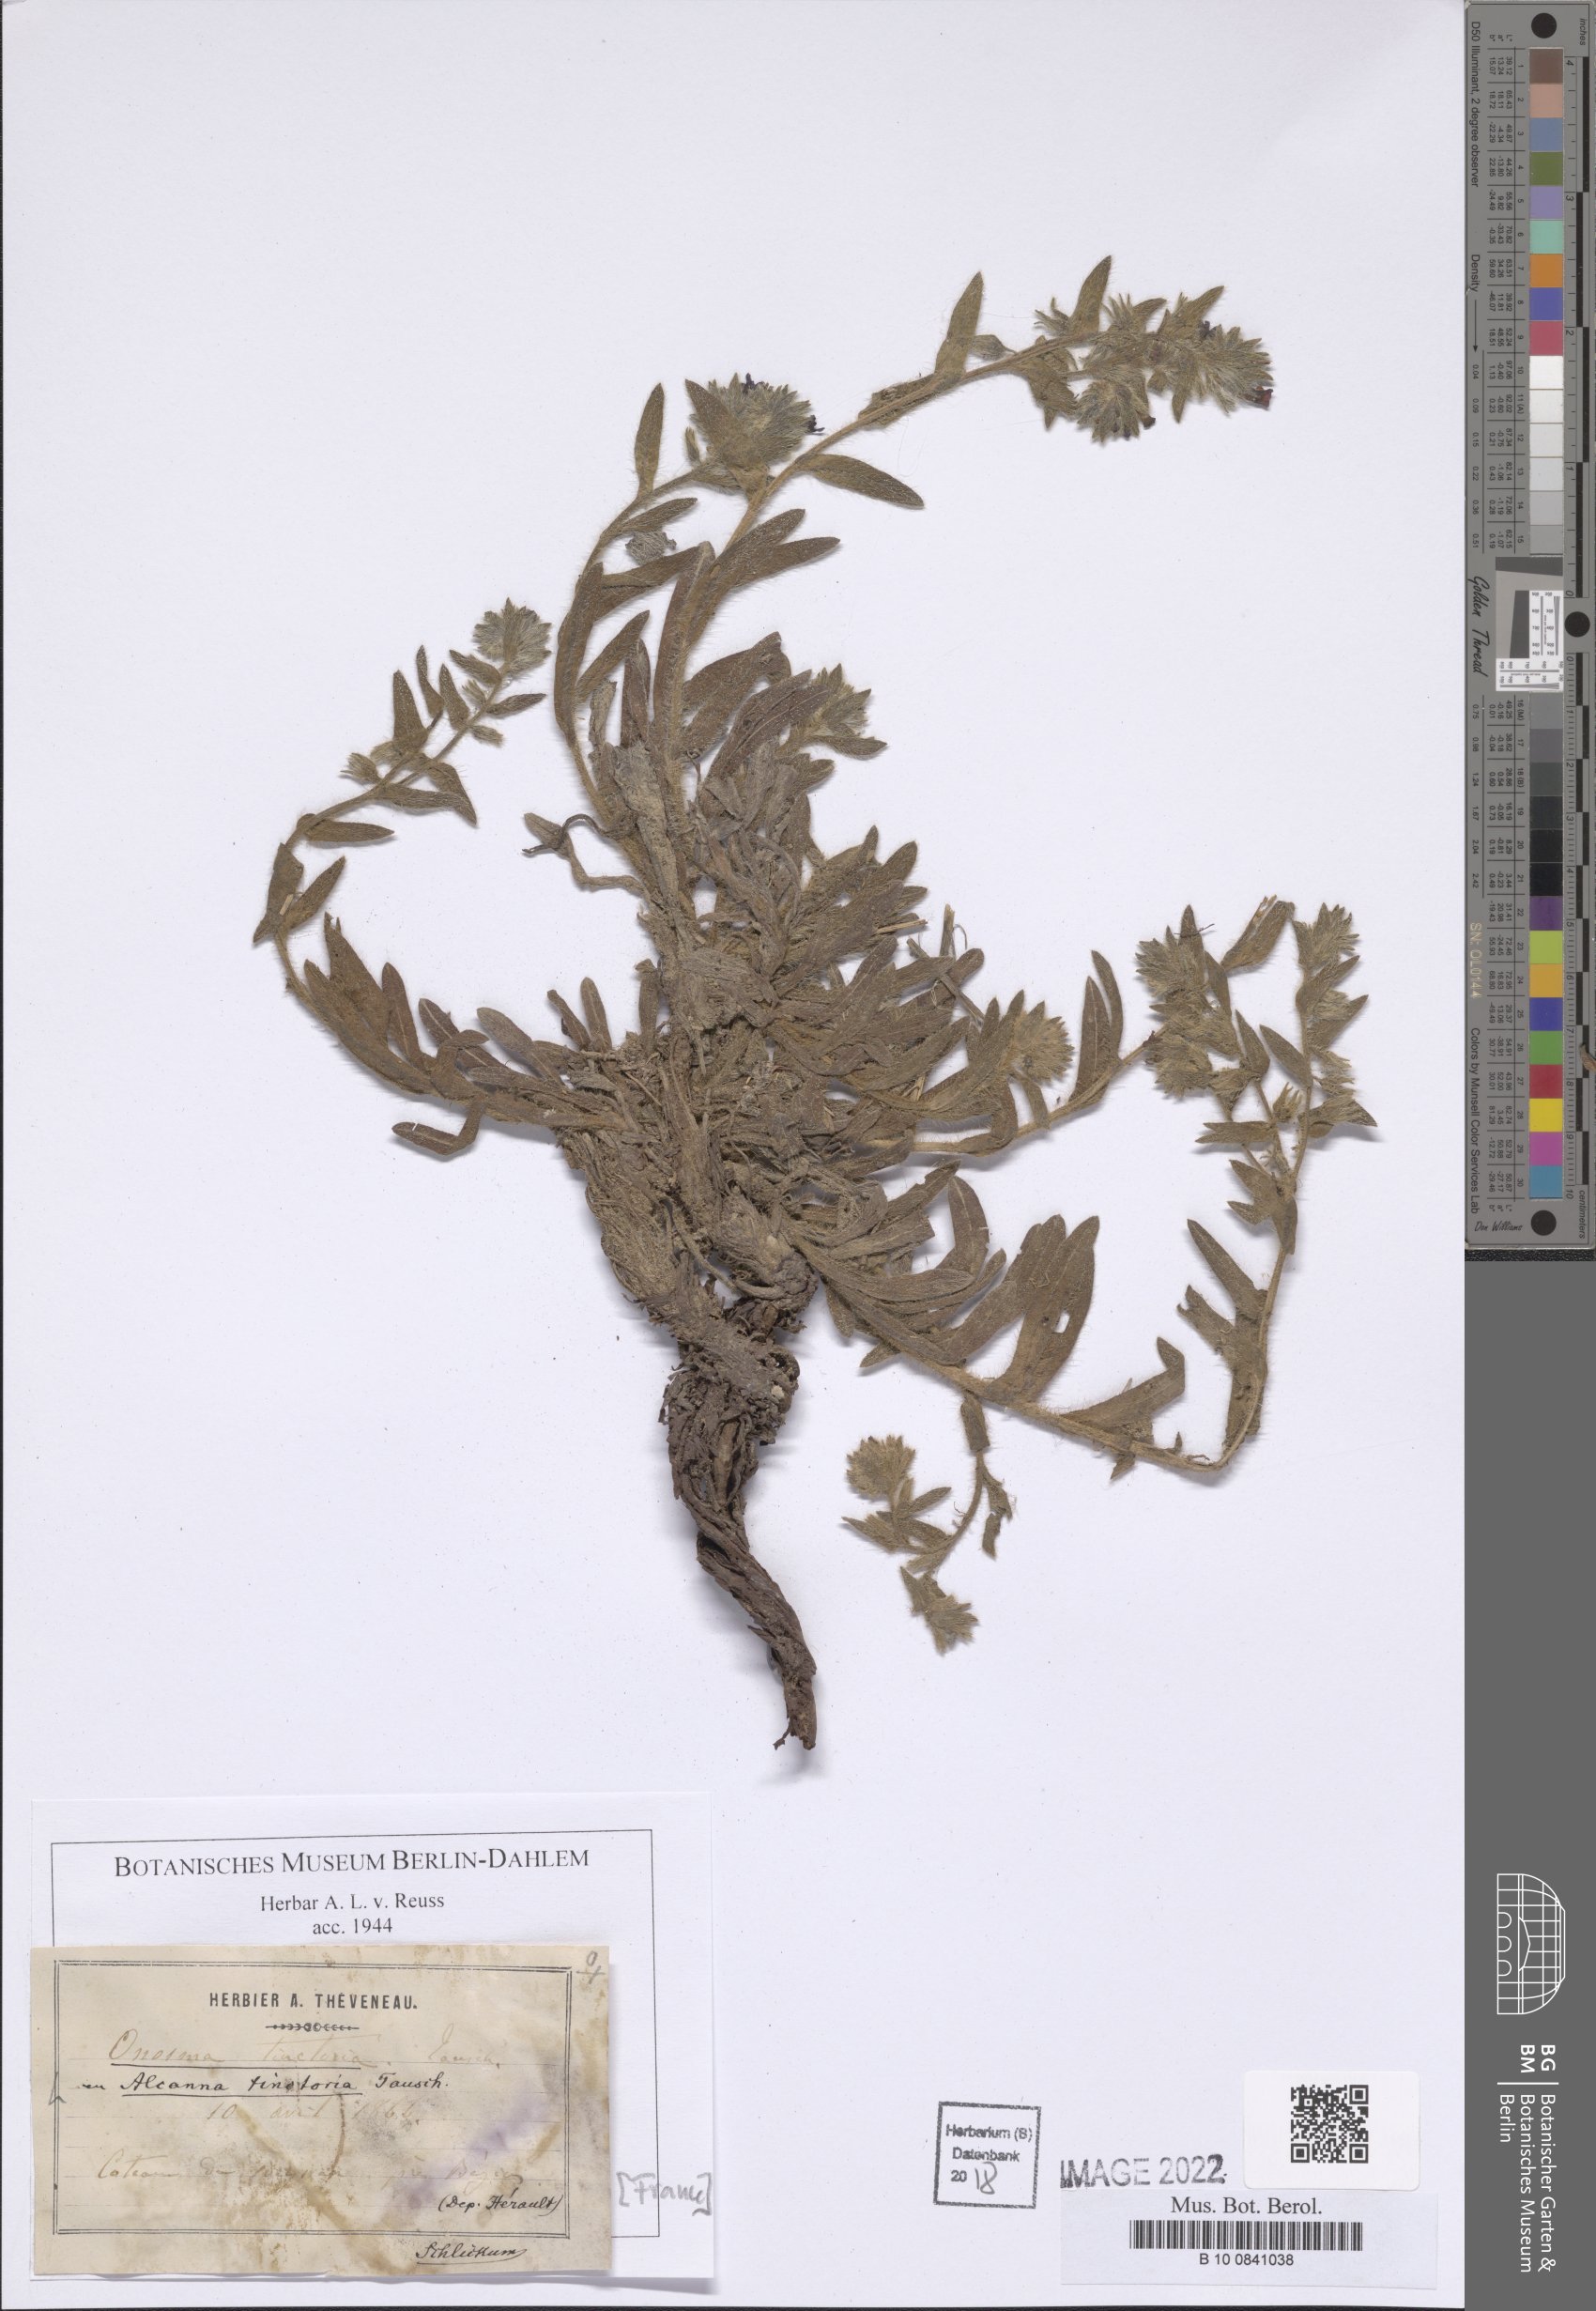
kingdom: Plantae
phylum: Tracheophyta
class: Magnoliopsida
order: Boraginales
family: Boraginaceae
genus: Alkanna
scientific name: Alkanna tinctoria
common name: Dyer's-alkanet
